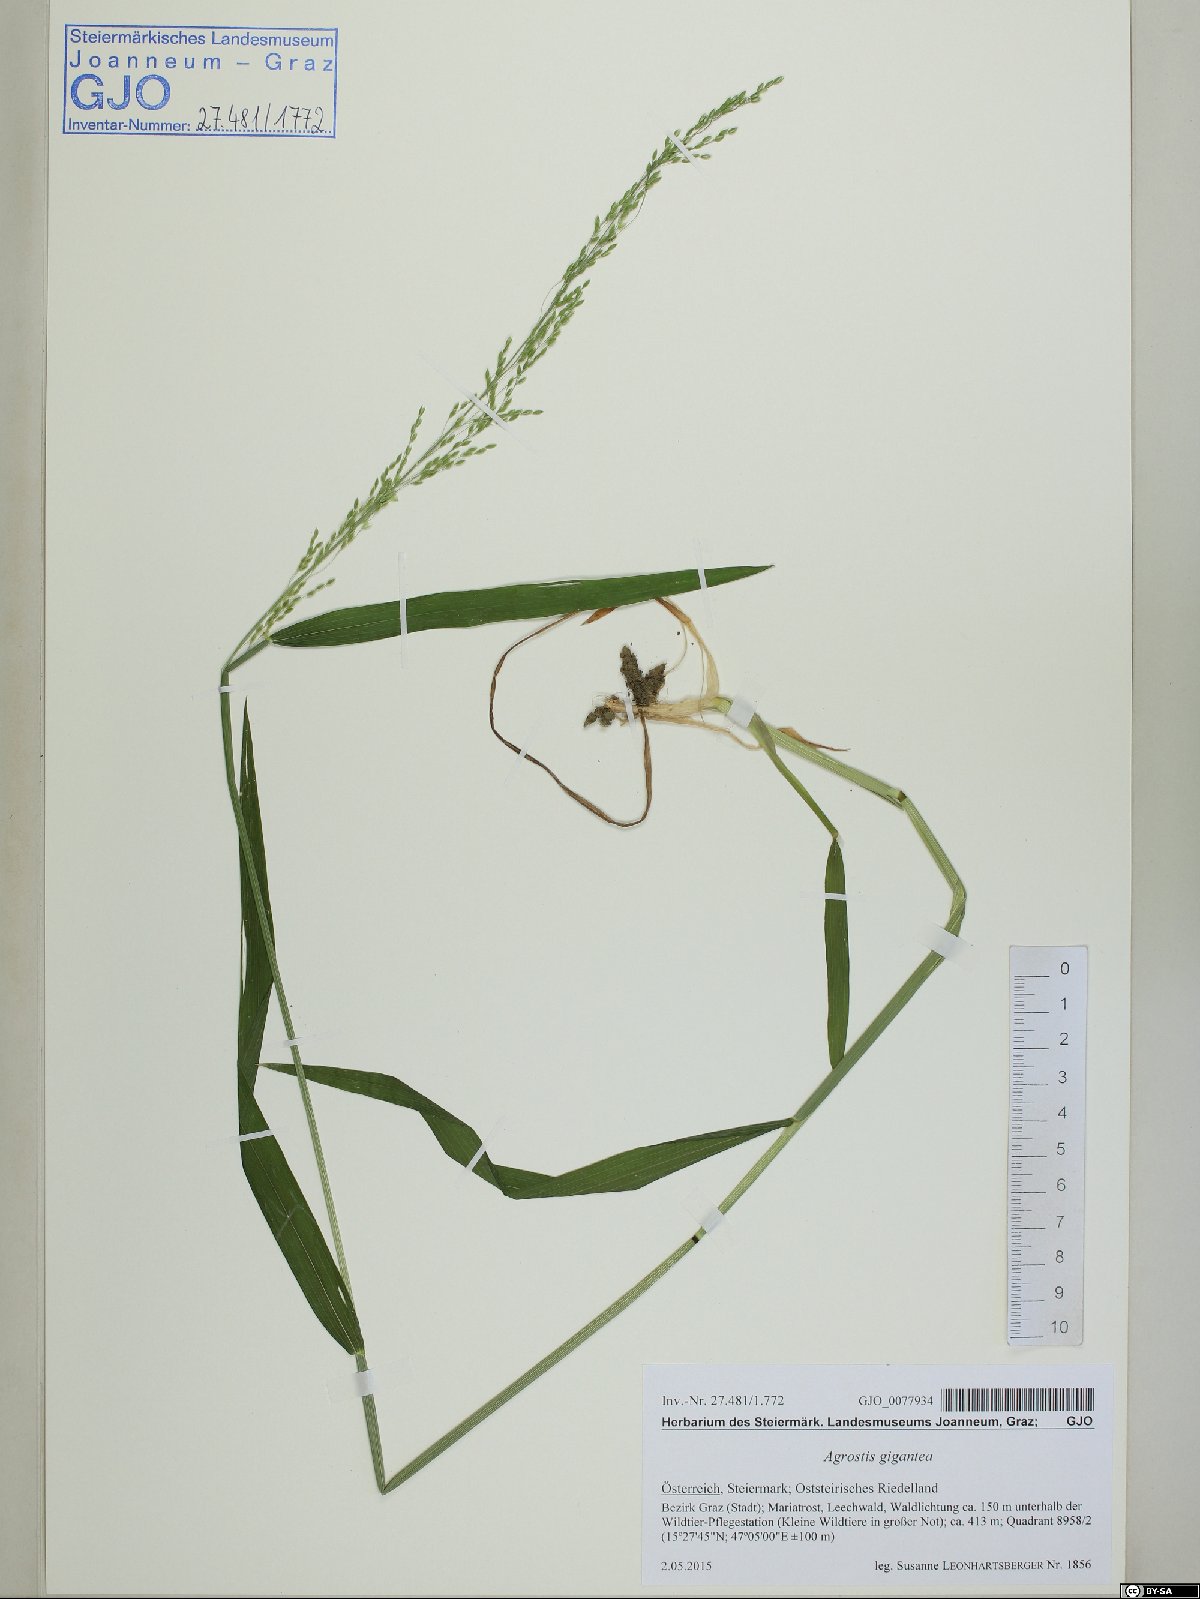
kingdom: Plantae
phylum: Tracheophyta
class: Liliopsida
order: Poales
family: Poaceae
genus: Milium
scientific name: Milium effusum
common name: Wood millet
